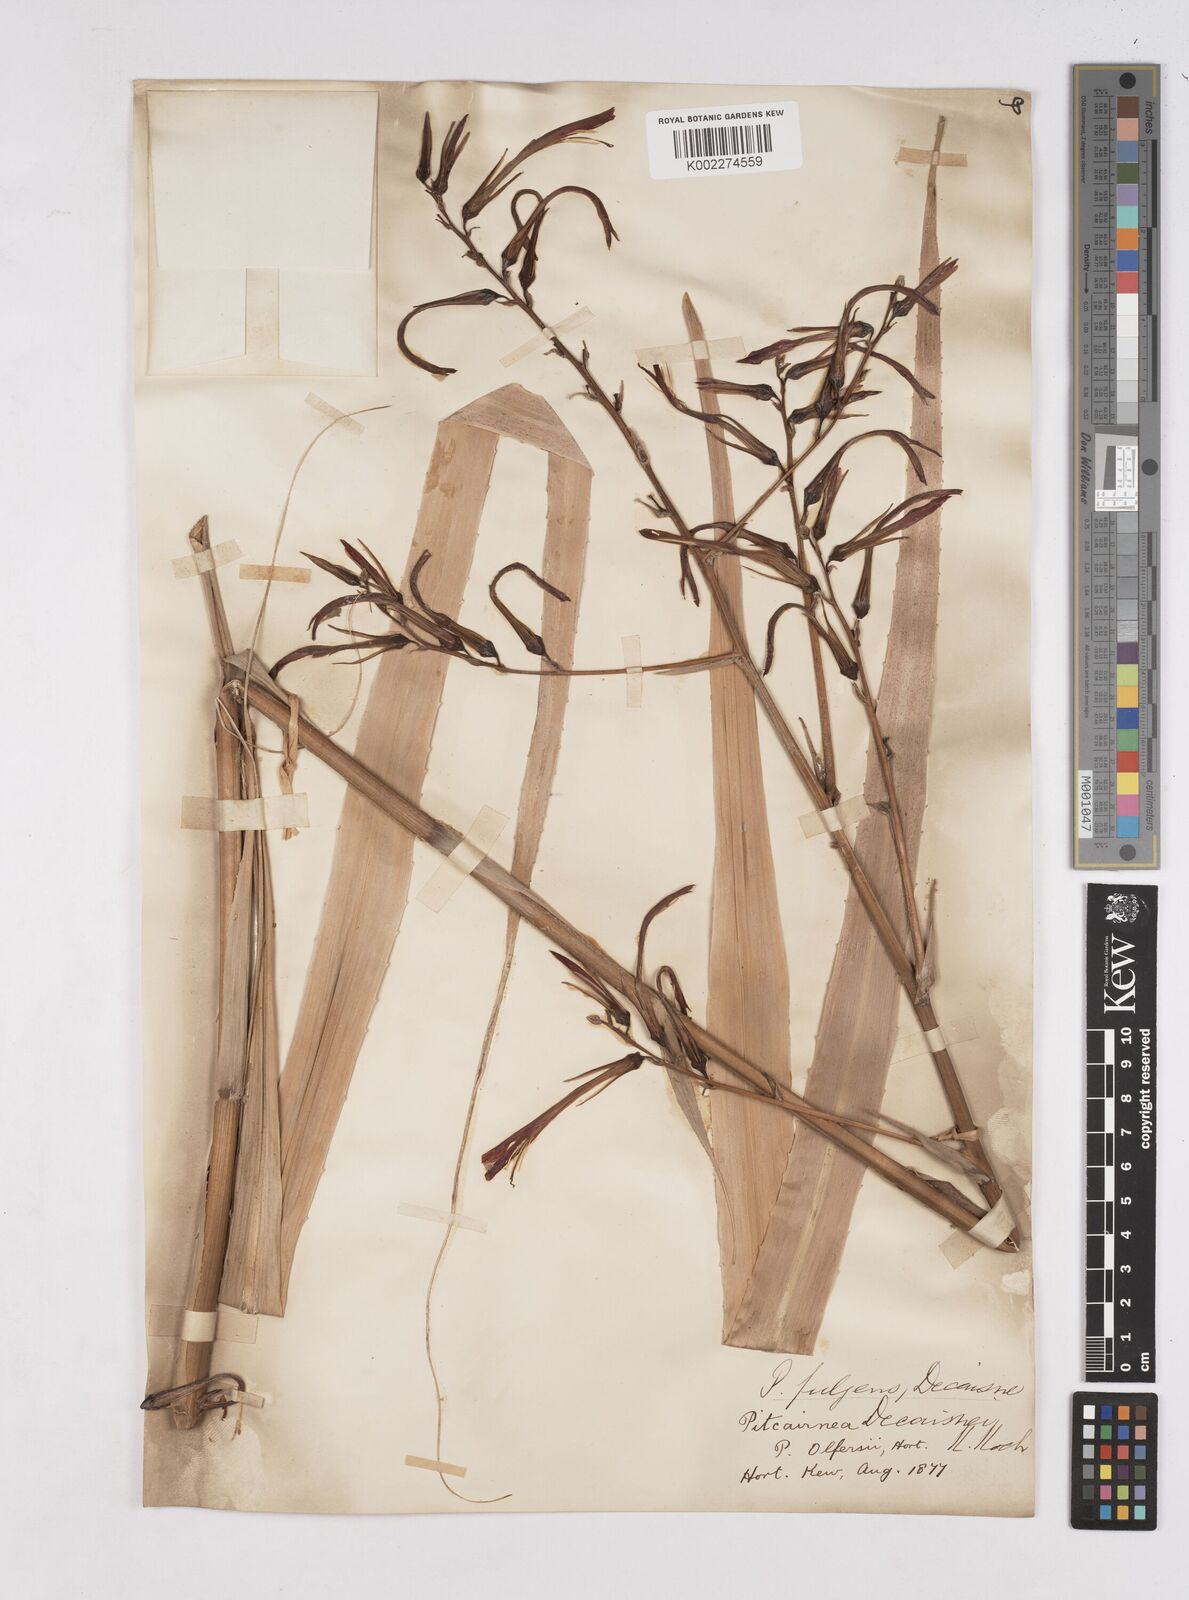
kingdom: Plantae
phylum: Tracheophyta
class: Liliopsida
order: Poales
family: Bromeliaceae
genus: Pitcairnia
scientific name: Pitcairnia albiflos
